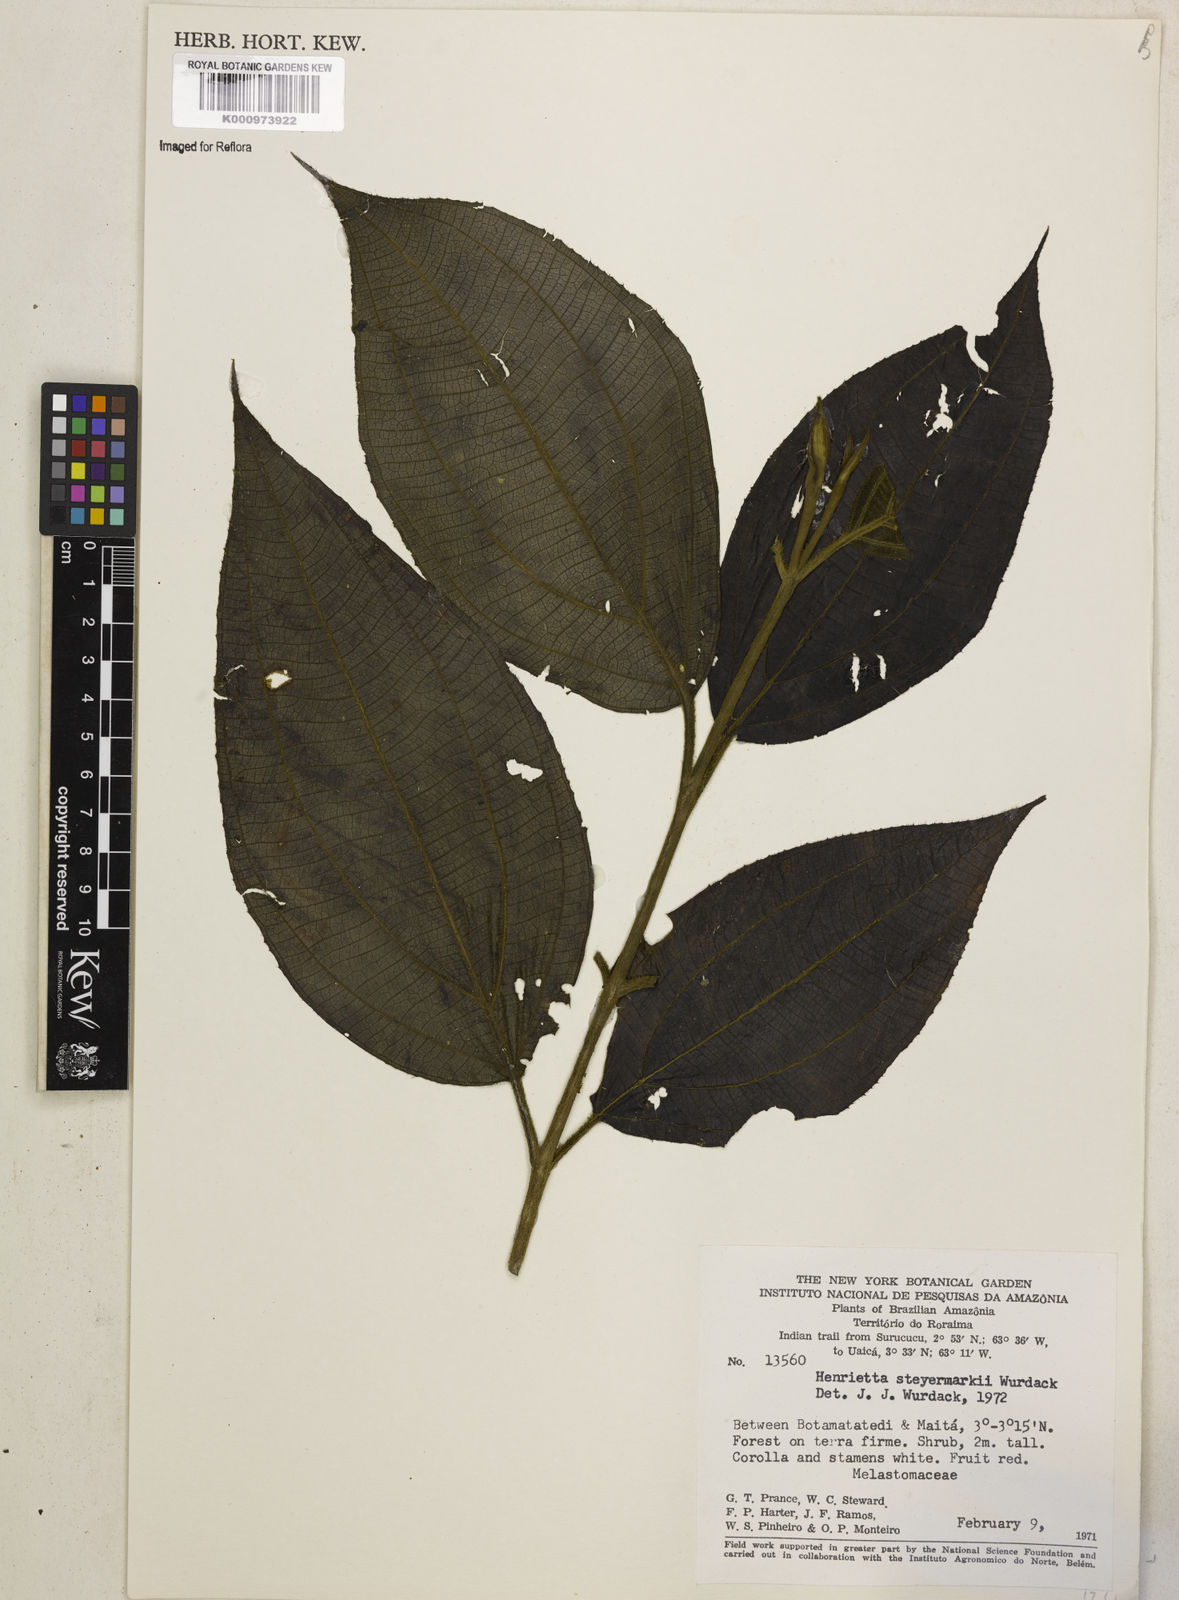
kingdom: Plantae
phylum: Tracheophyta
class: Magnoliopsida
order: Myrtales
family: Melastomataceae
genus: Henriettea
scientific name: Henriettea
